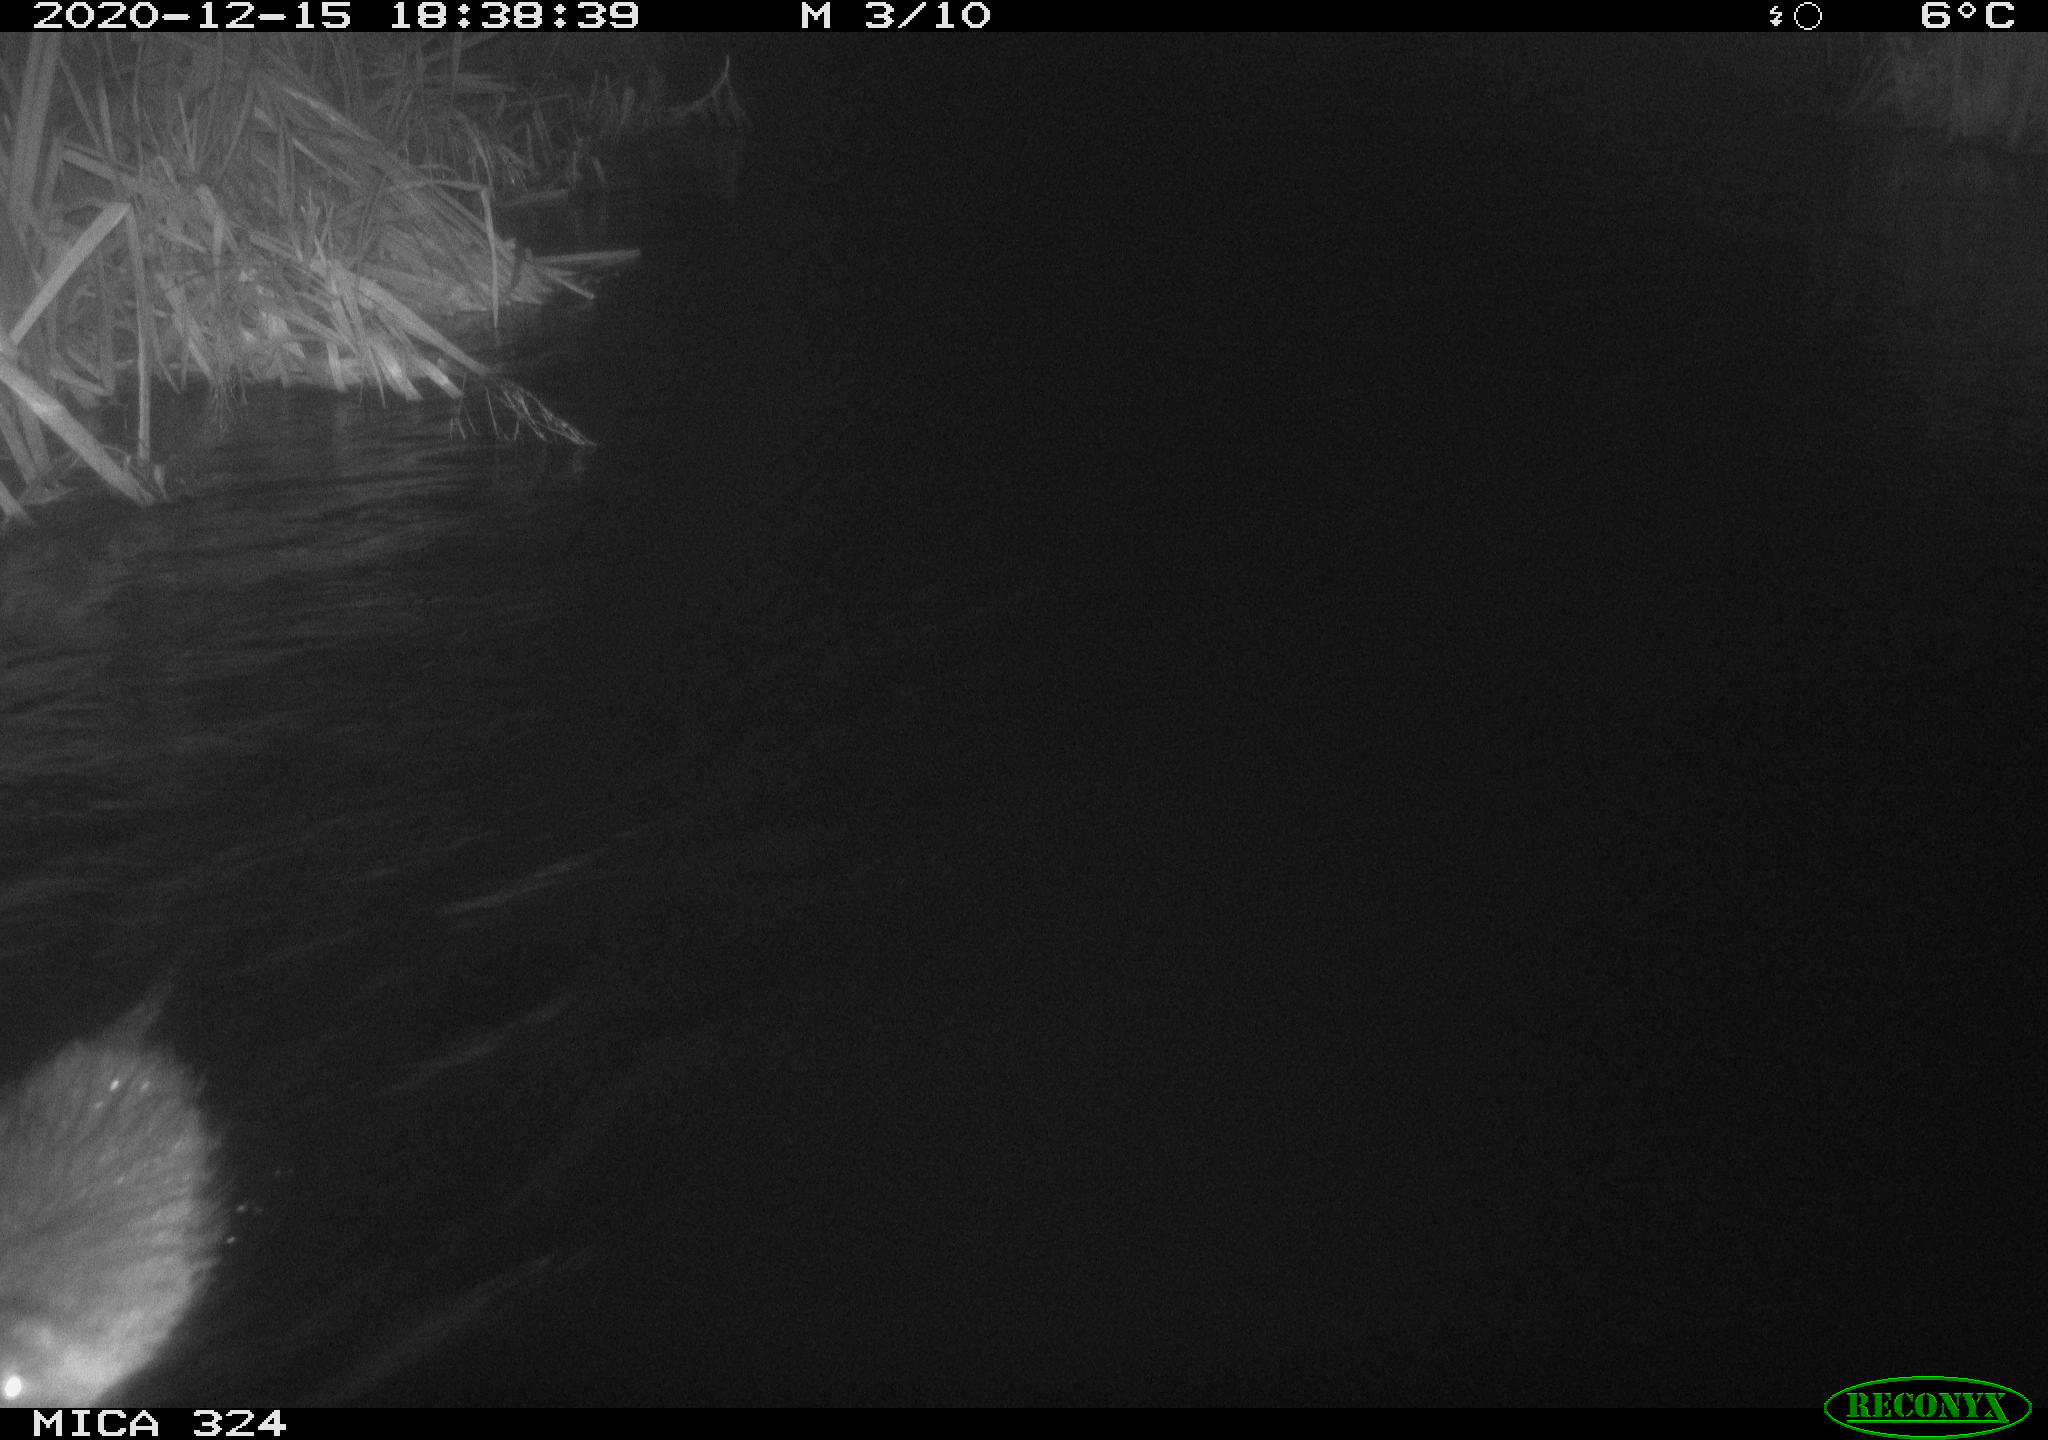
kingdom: Animalia
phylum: Chordata
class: Mammalia
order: Rodentia
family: Myocastoridae
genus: Myocastor
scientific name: Myocastor coypus
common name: Coypu
